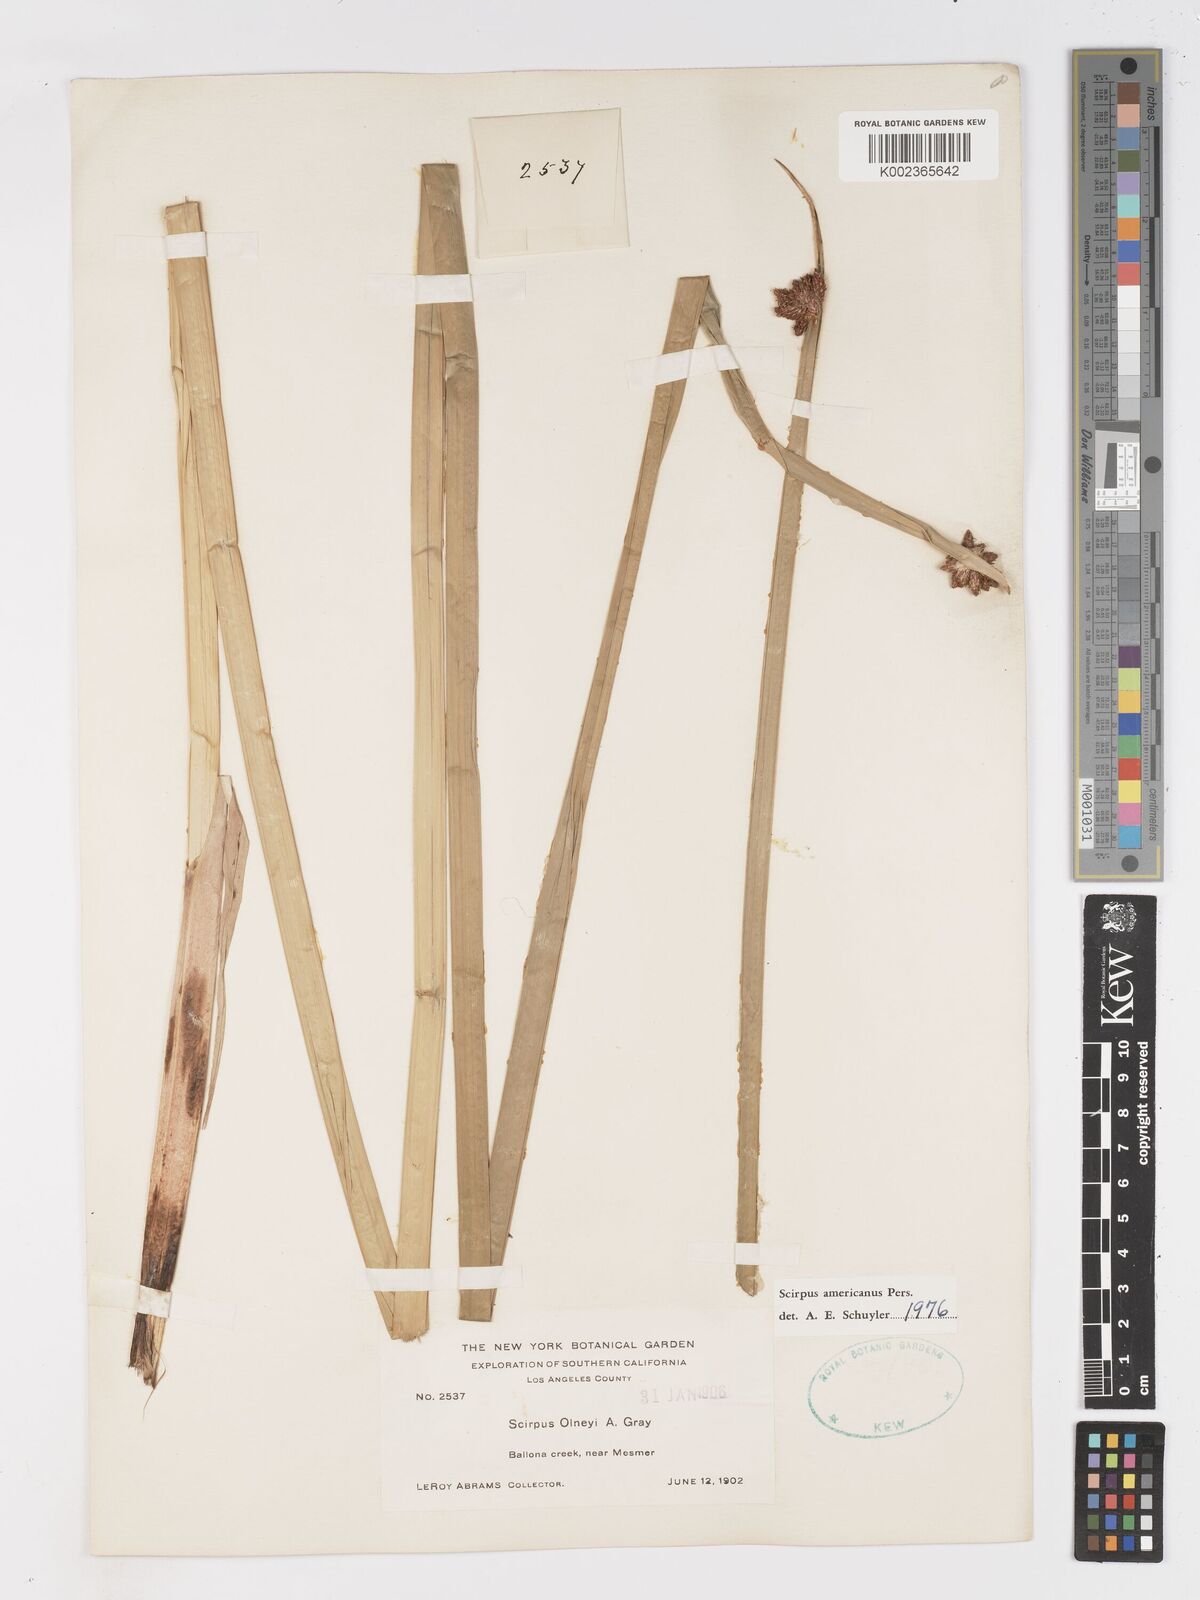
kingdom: Plantae
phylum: Tracheophyta
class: Liliopsida
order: Poales
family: Cyperaceae
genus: Schoenoplectus
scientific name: Schoenoplectus americanus
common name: American three-square bulrush
